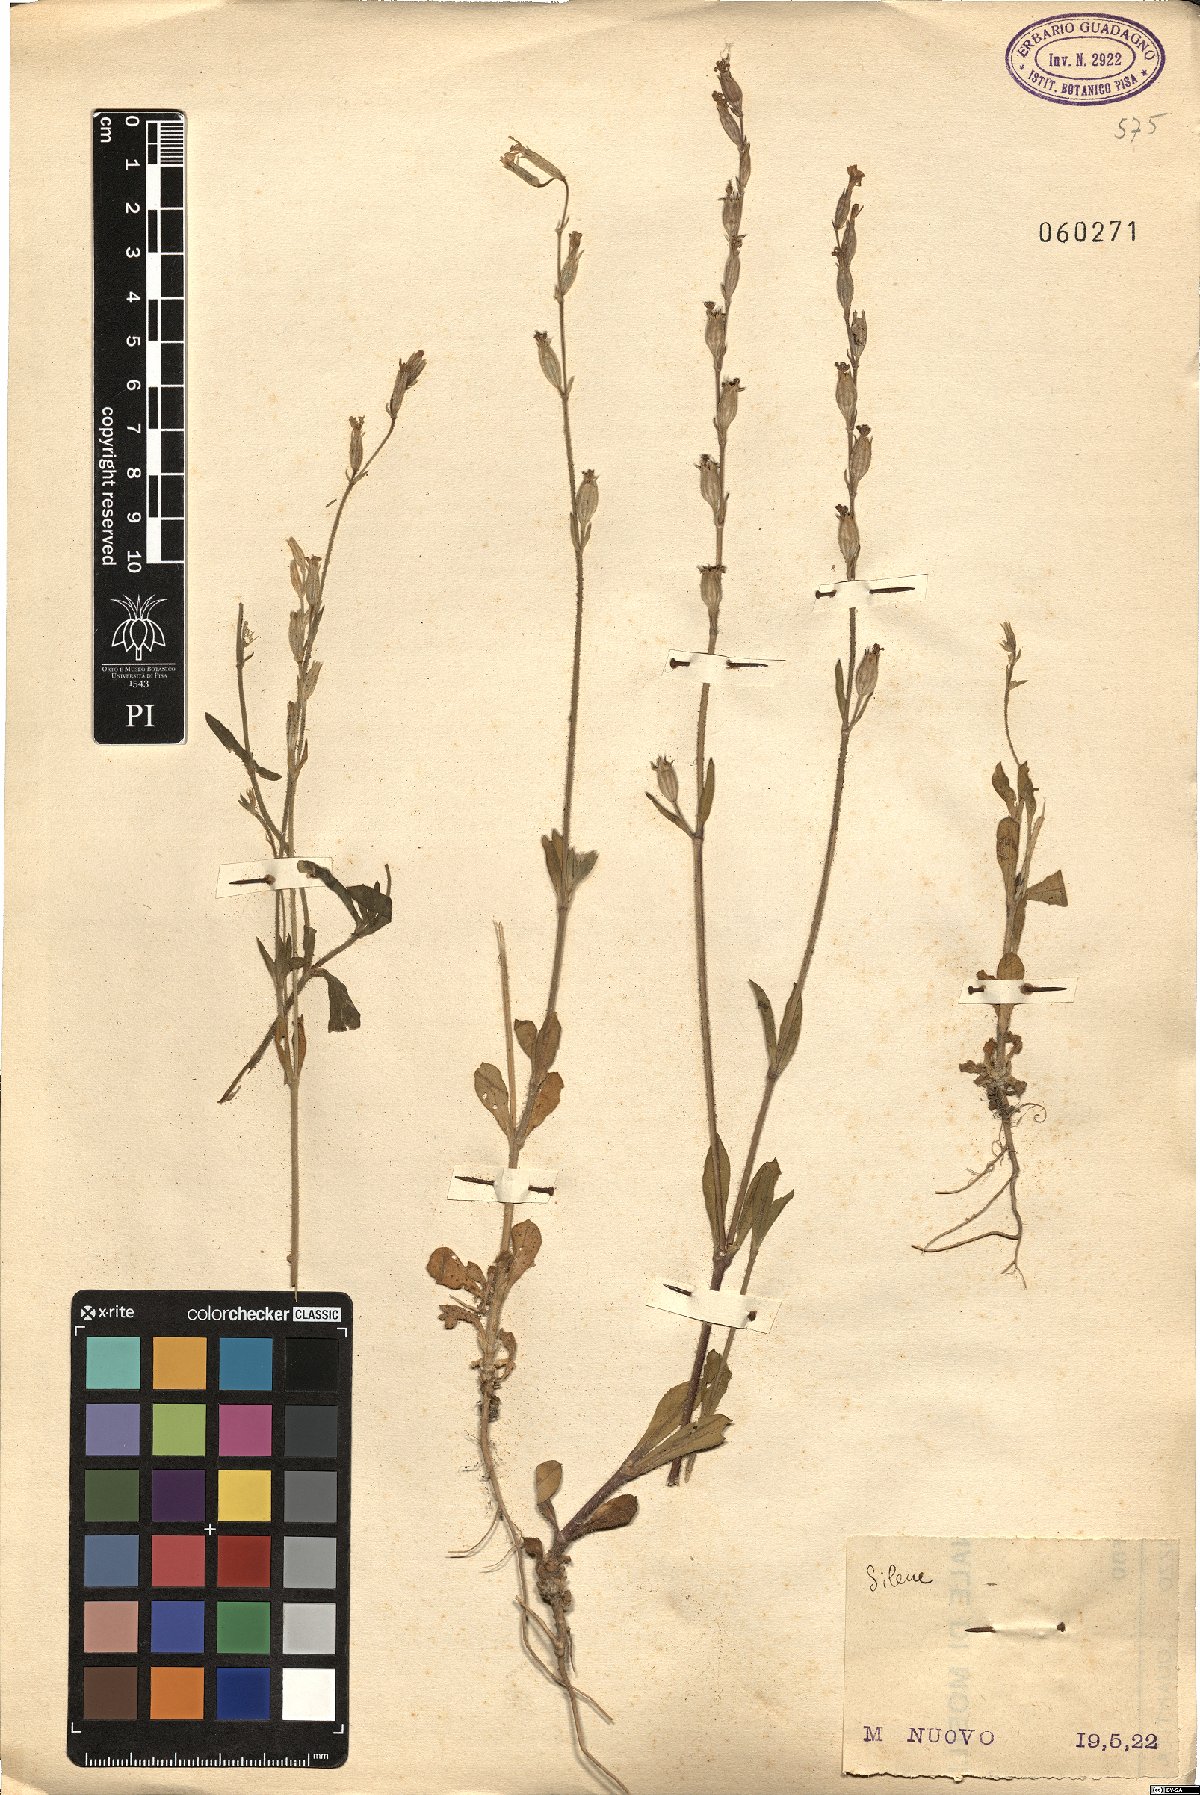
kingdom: Plantae
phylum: Tracheophyta
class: Magnoliopsida
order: Caryophyllales
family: Caryophyllaceae
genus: Silene
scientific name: Silene
